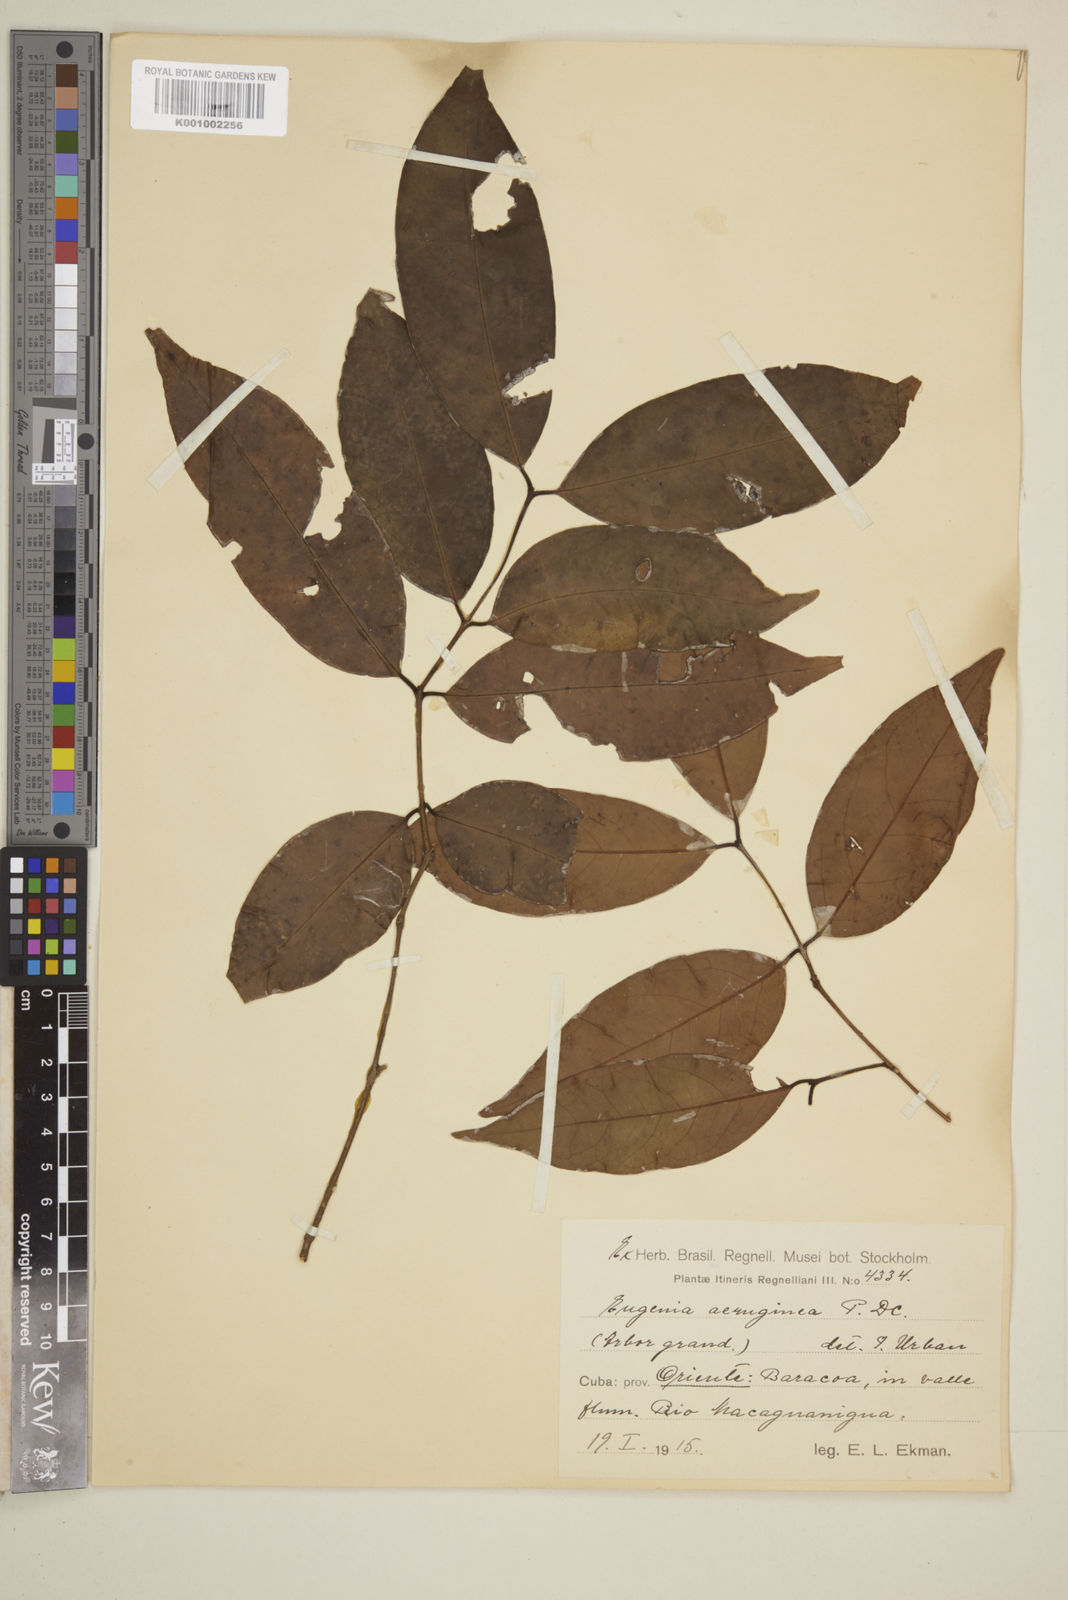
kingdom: Plantae
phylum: Tracheophyta
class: Magnoliopsida
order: Myrtales
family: Myrtaceae
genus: Eugenia
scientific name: Eugenia domingensis
